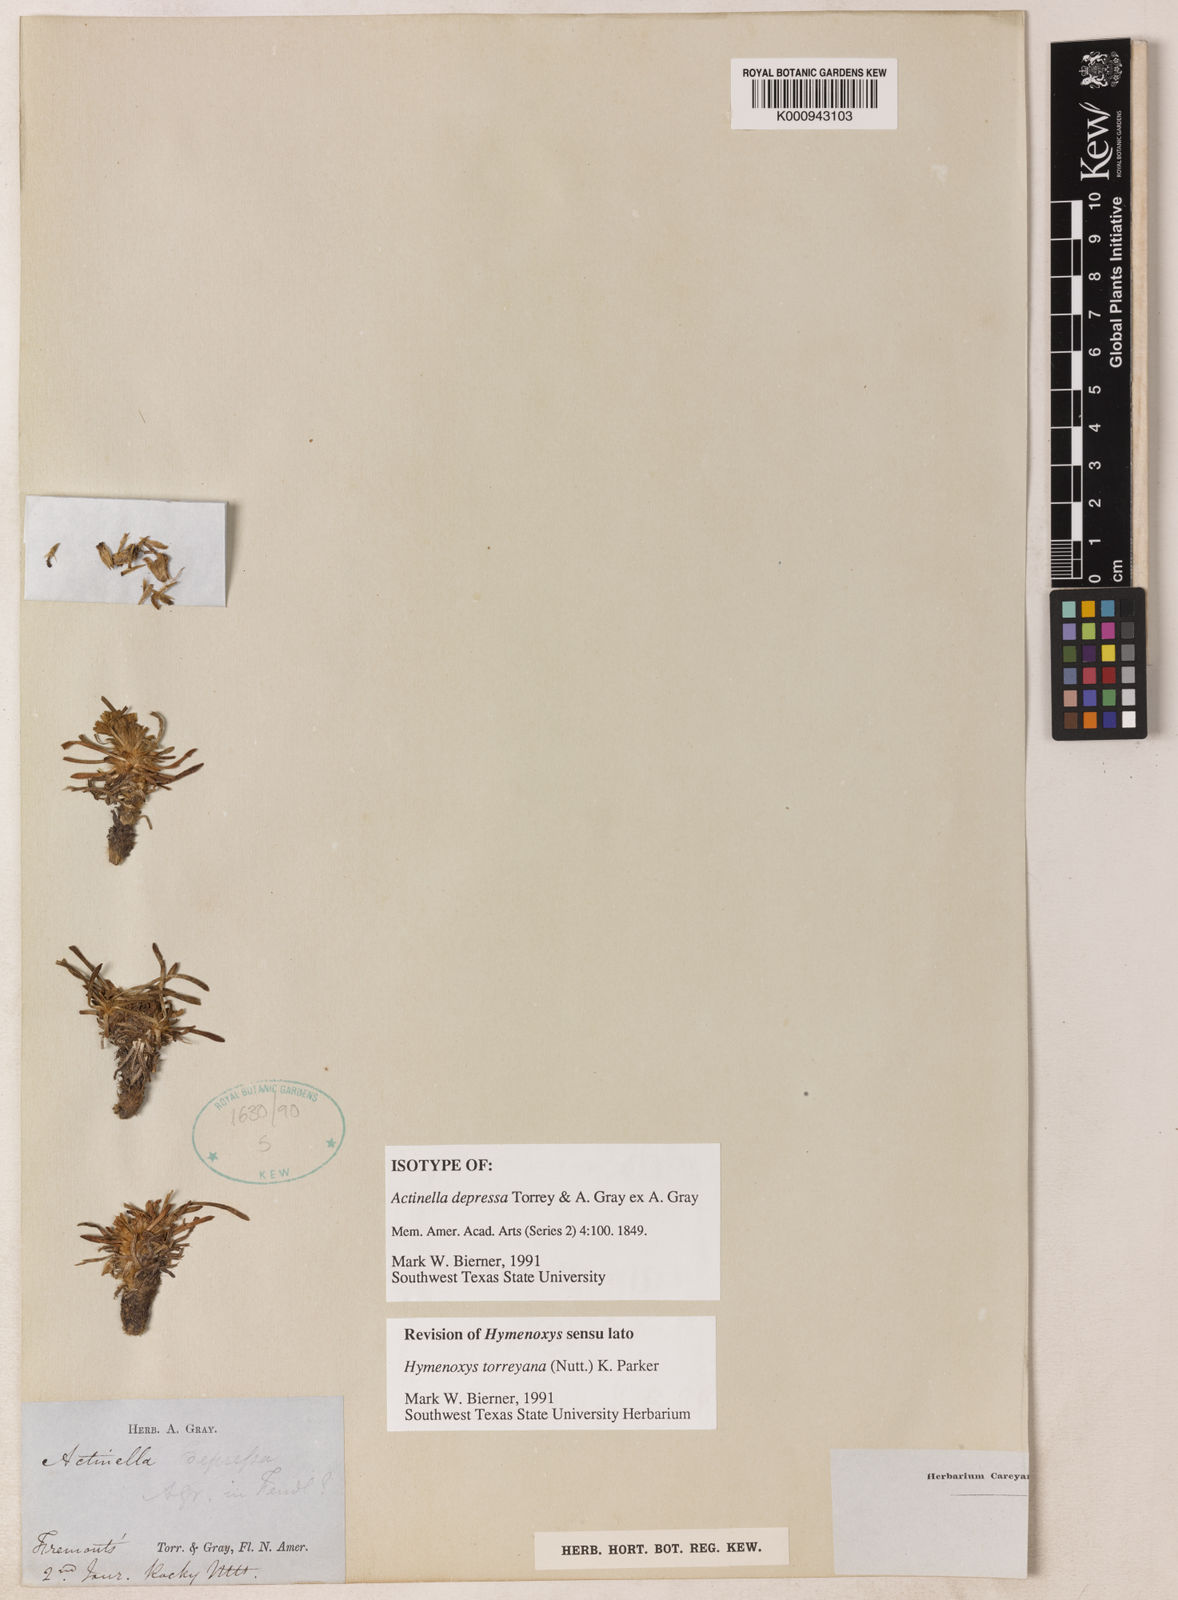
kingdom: Plantae
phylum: Tracheophyta
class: Magnoliopsida
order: Asterales
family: Asteraceae
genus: Tetraneuris
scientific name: Tetraneuris torreyana
